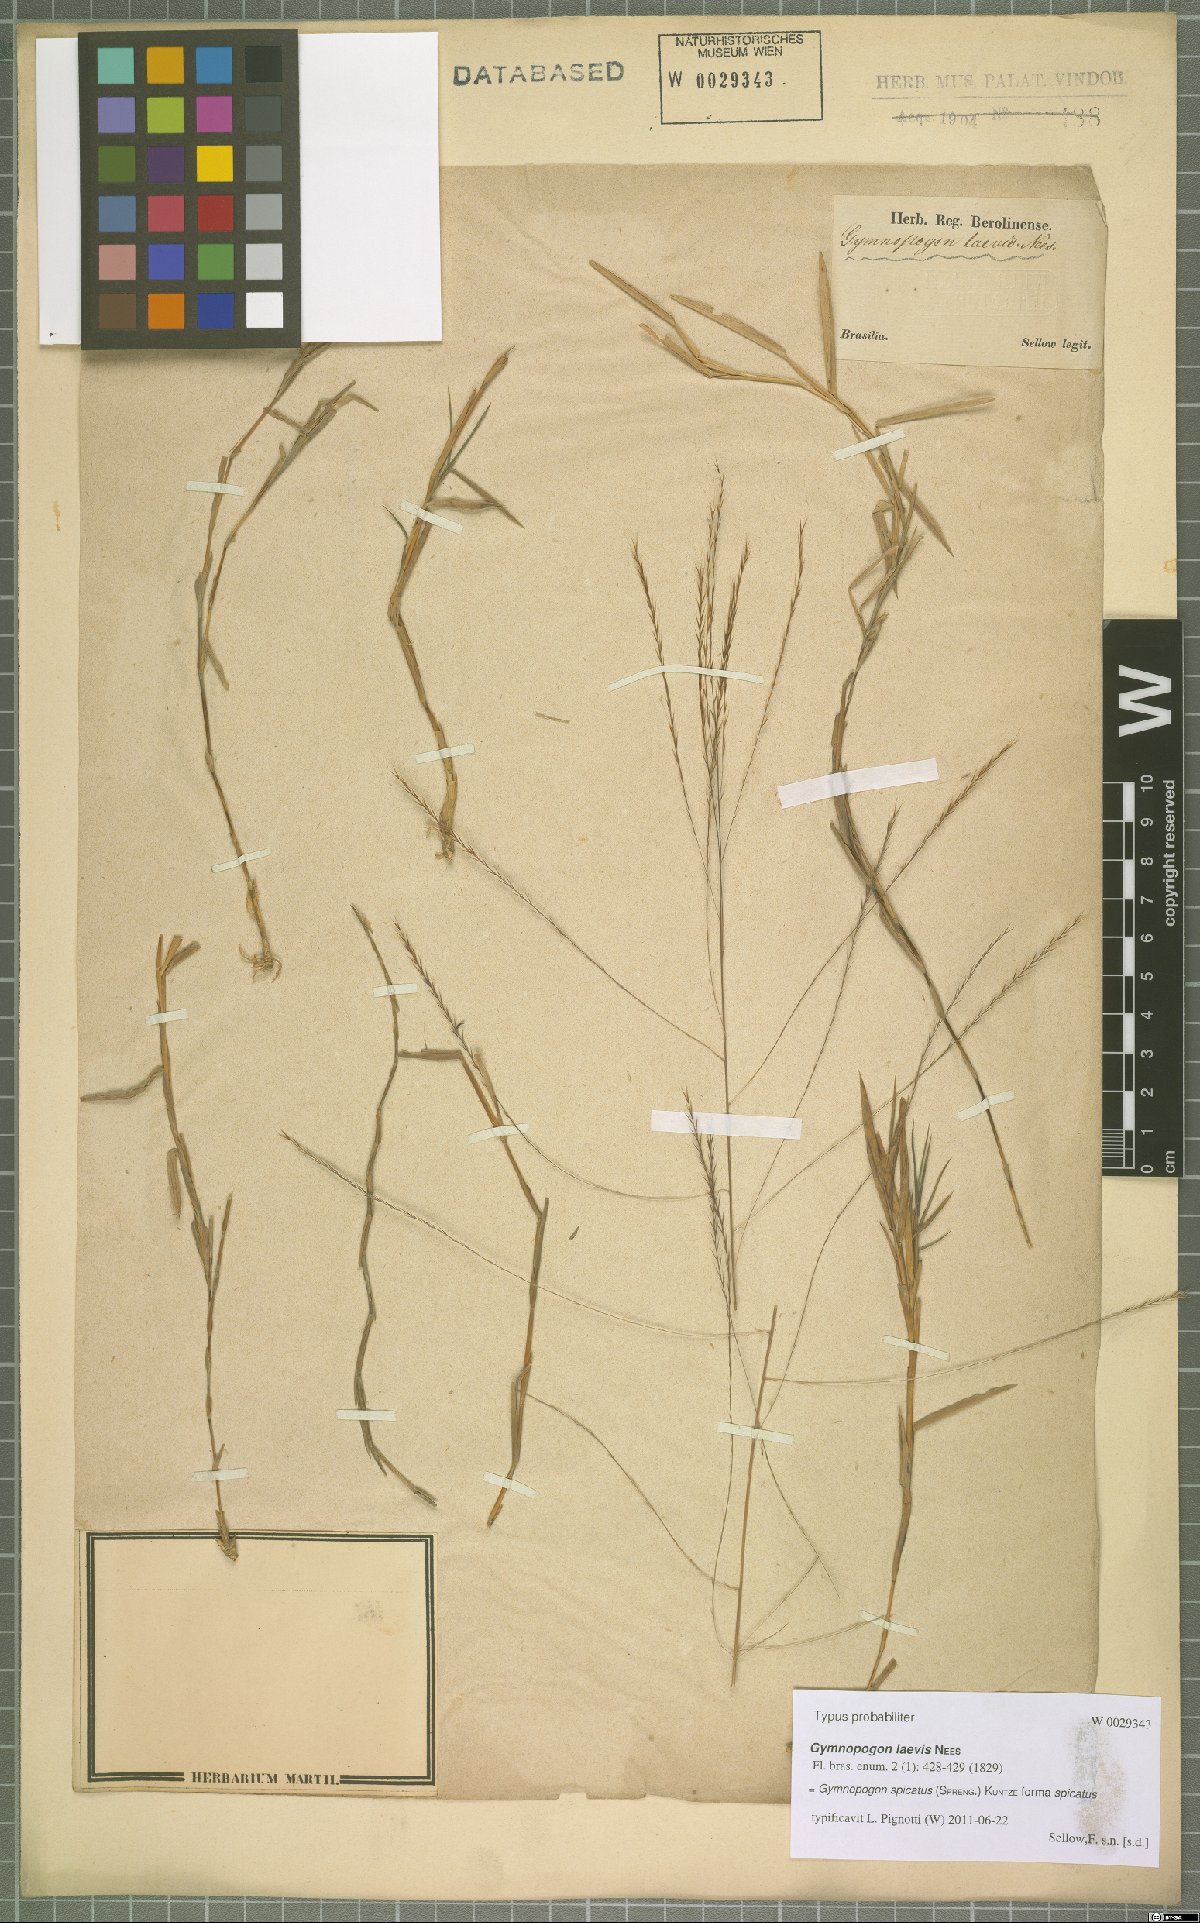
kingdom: Plantae
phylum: Tracheophyta
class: Liliopsida
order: Poales
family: Poaceae
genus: Gymnopogon
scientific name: Gymnopogon spicatus
